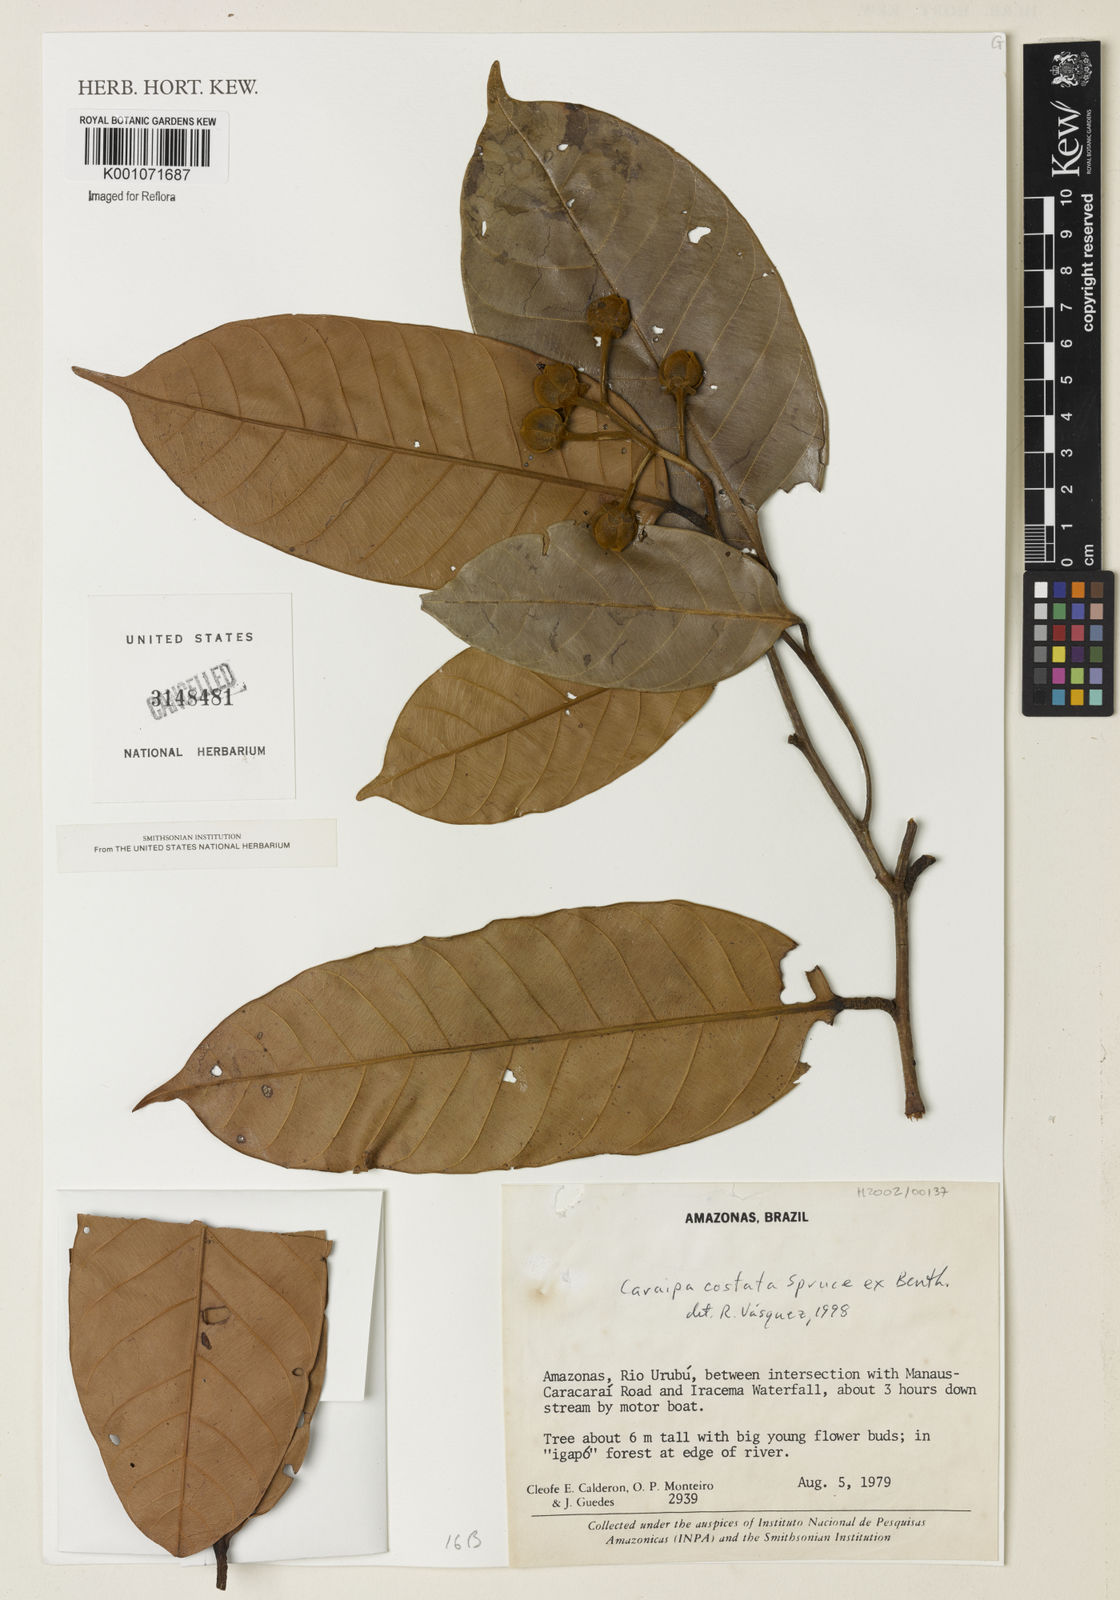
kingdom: Plantae
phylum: Tracheophyta
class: Magnoliopsida
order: Malpighiales
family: Calophyllaceae
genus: Caraipa
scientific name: Caraipa costata
